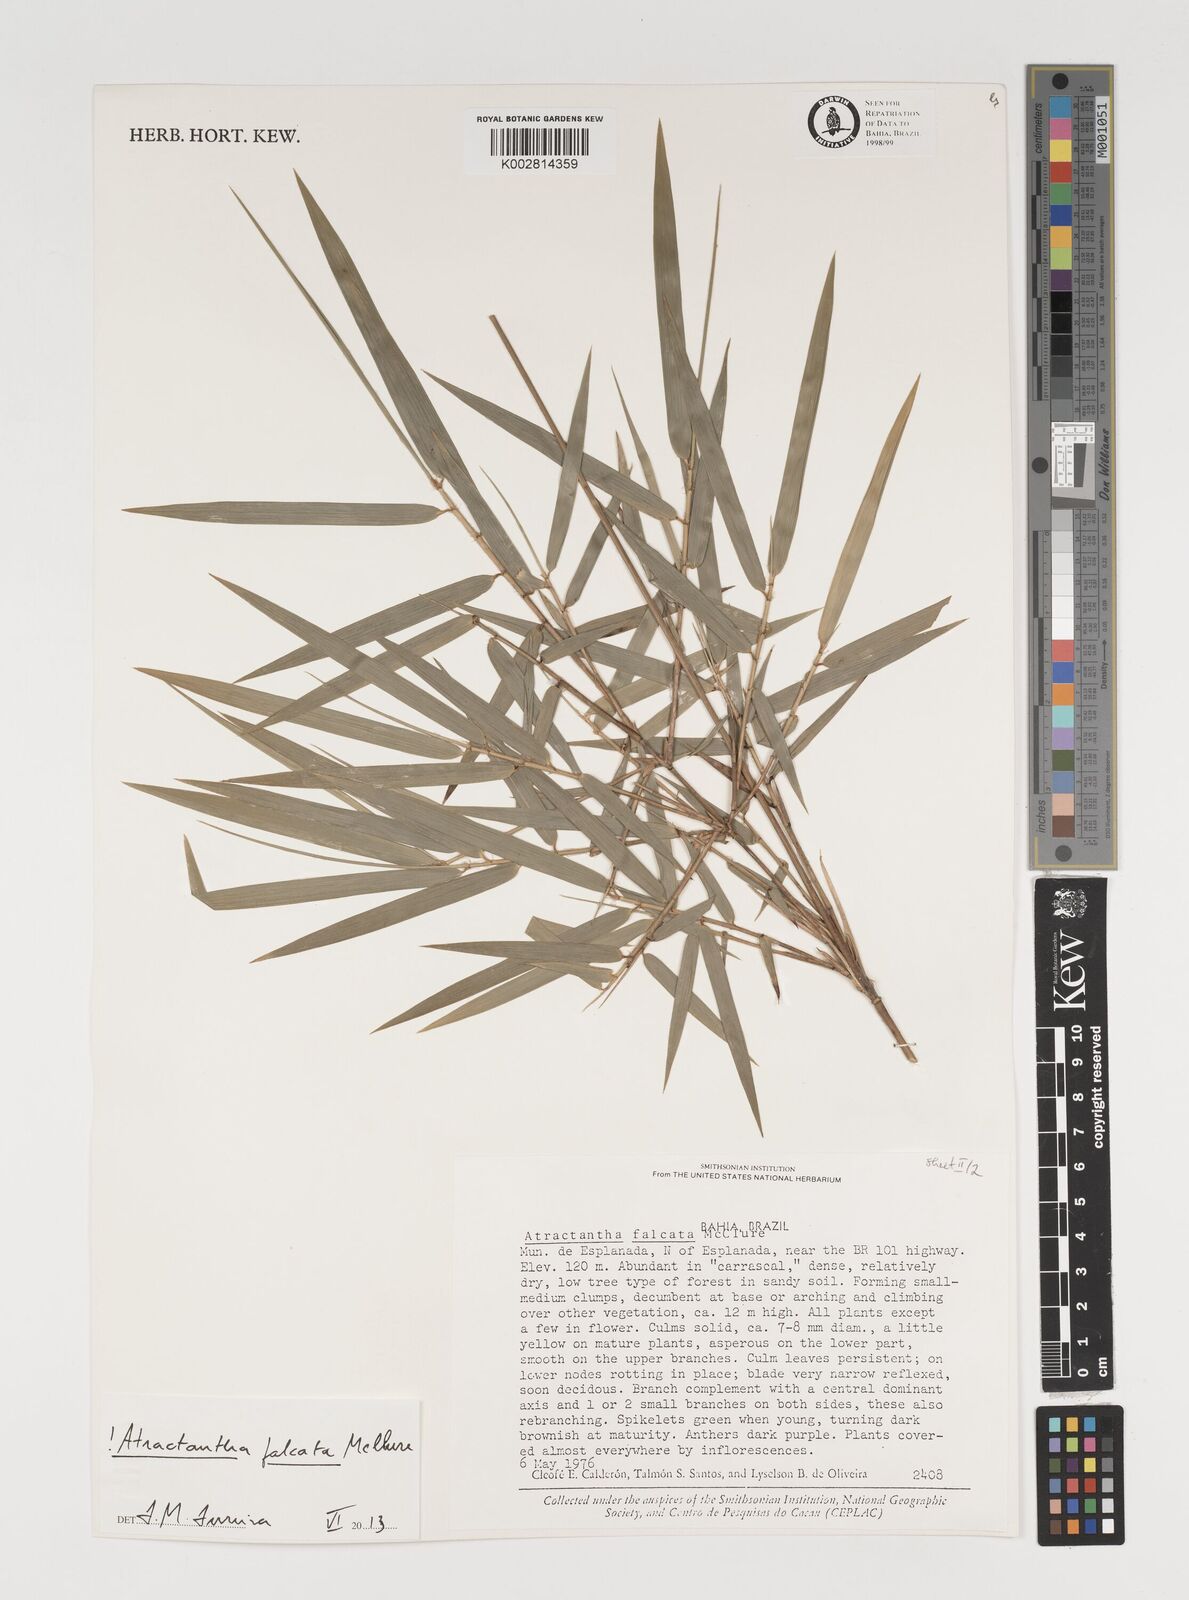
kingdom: Plantae
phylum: Tracheophyta
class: Liliopsida
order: Poales
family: Poaceae
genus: Atractantha
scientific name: Atractantha falcata
